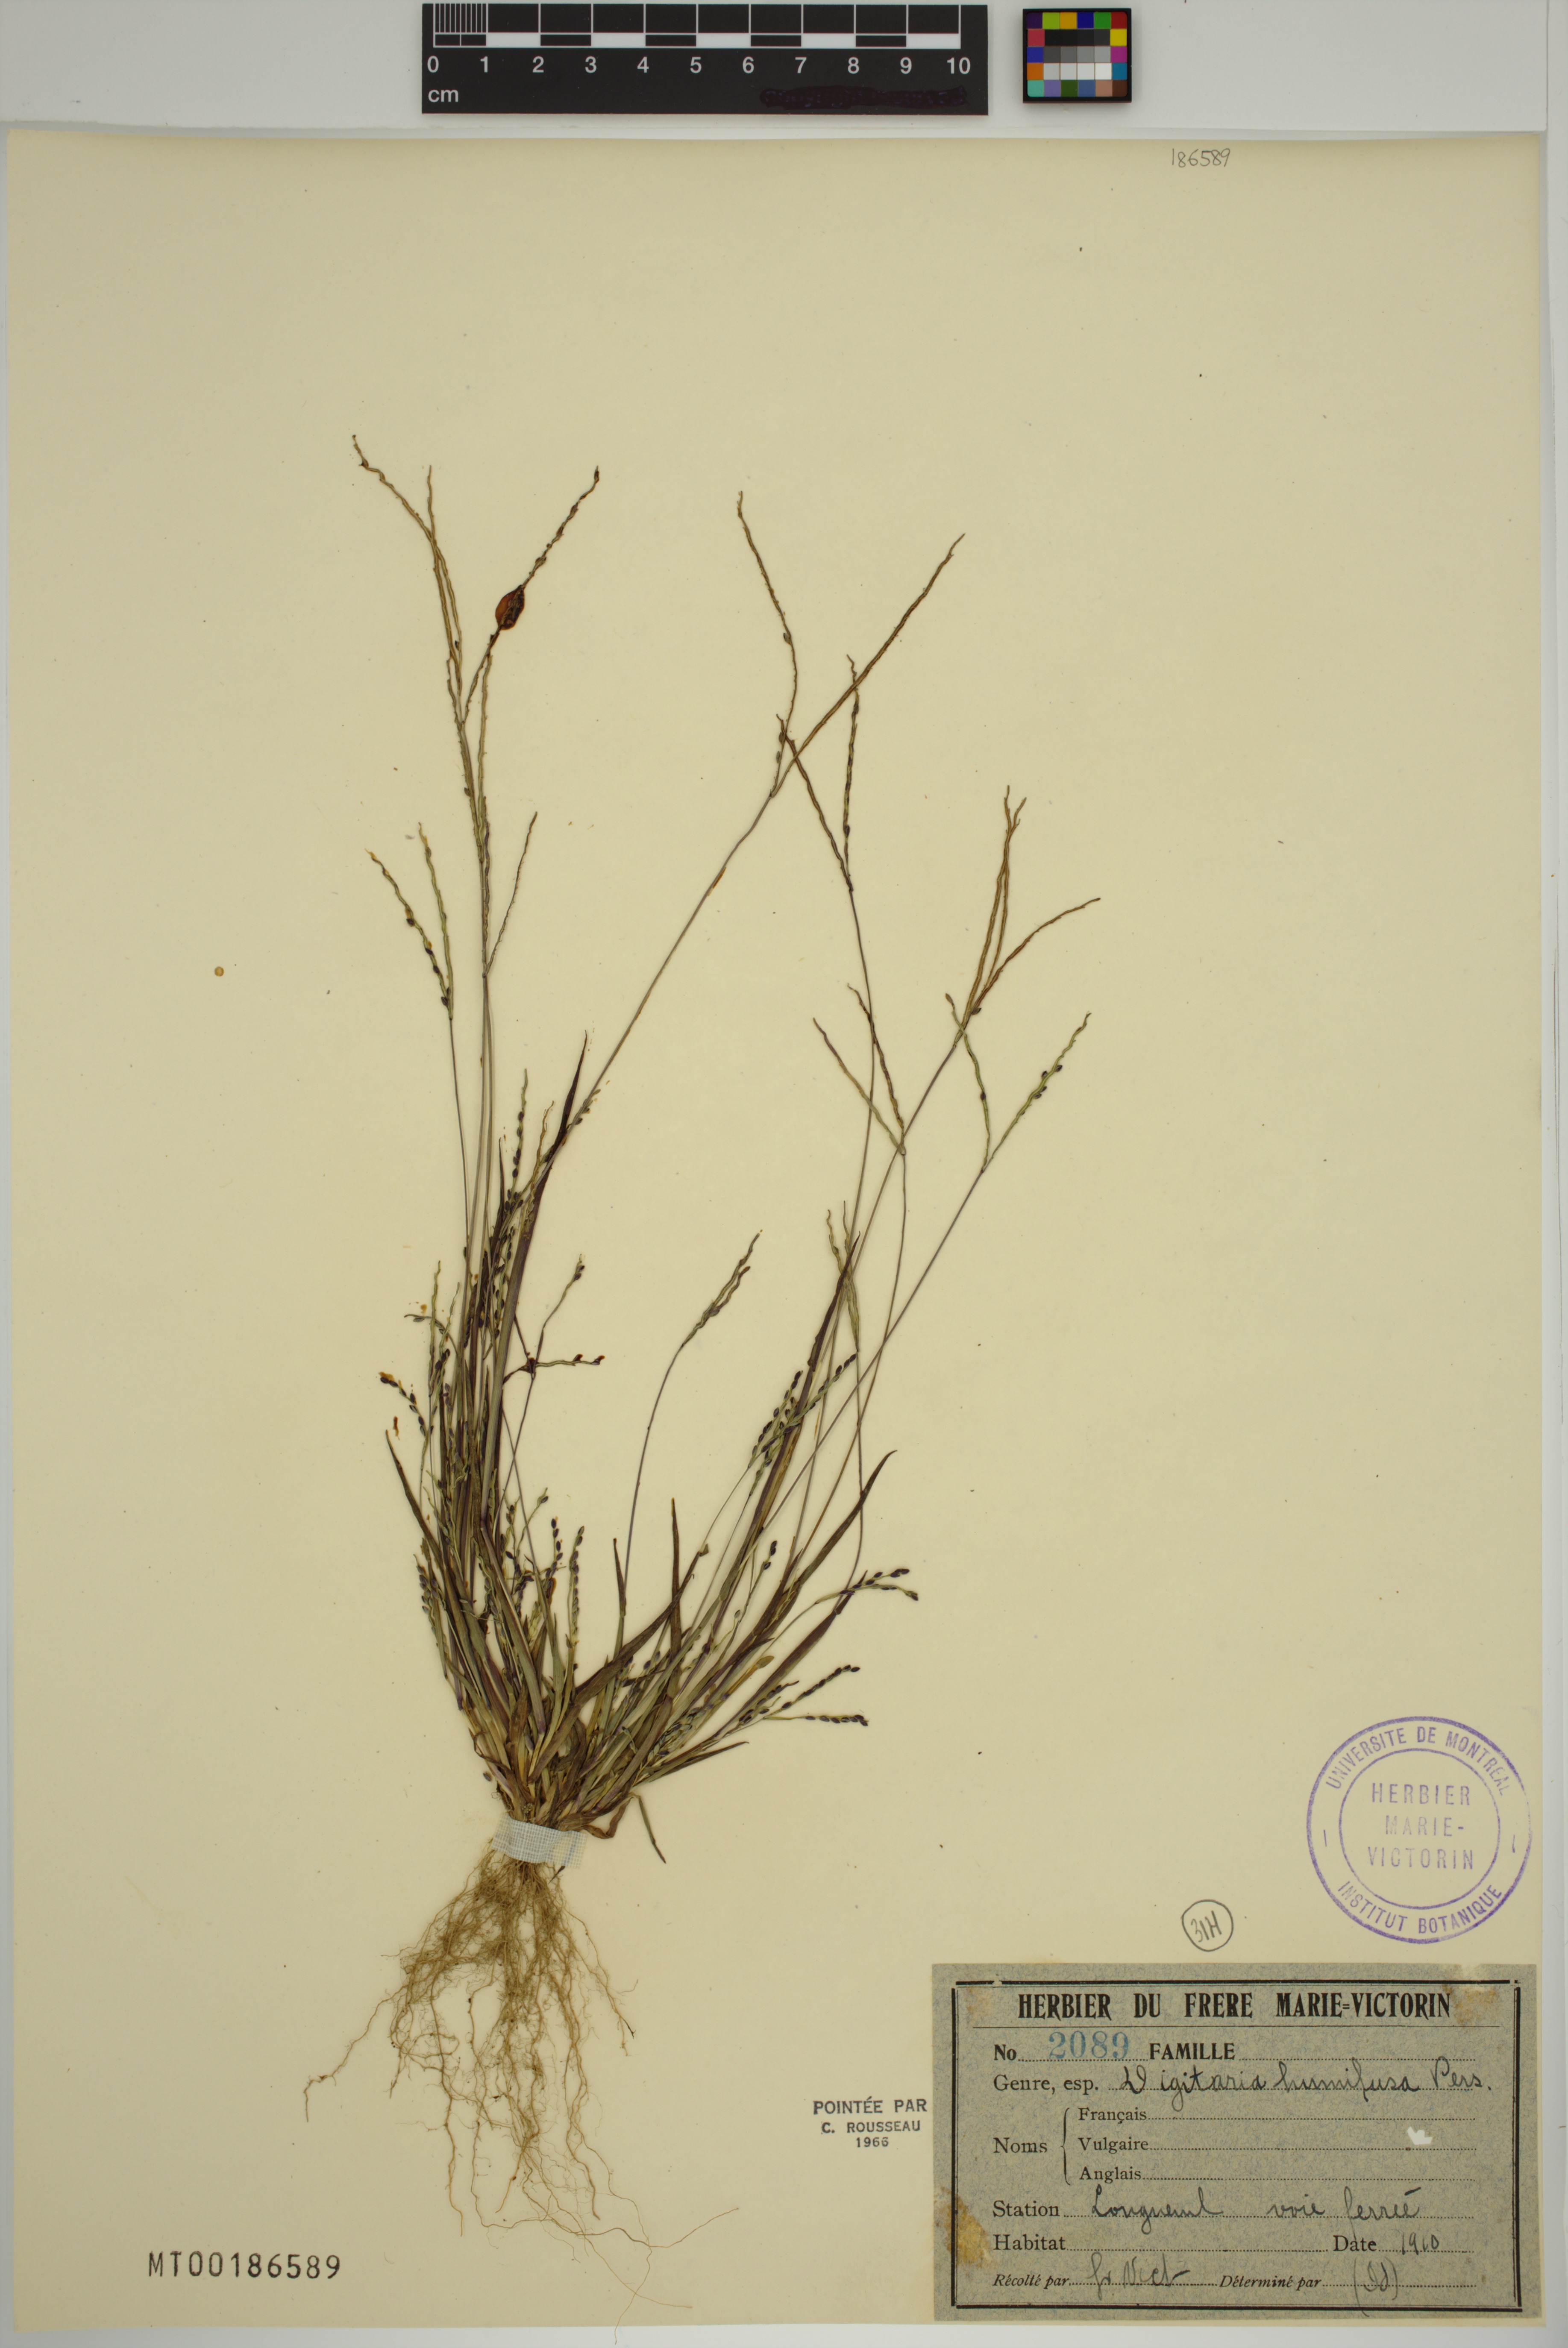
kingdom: Plantae
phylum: Tracheophyta
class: Liliopsida
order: Poales
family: Poaceae
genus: Digitaria
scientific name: Digitaria ischaemum
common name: Smooth crabgrass
